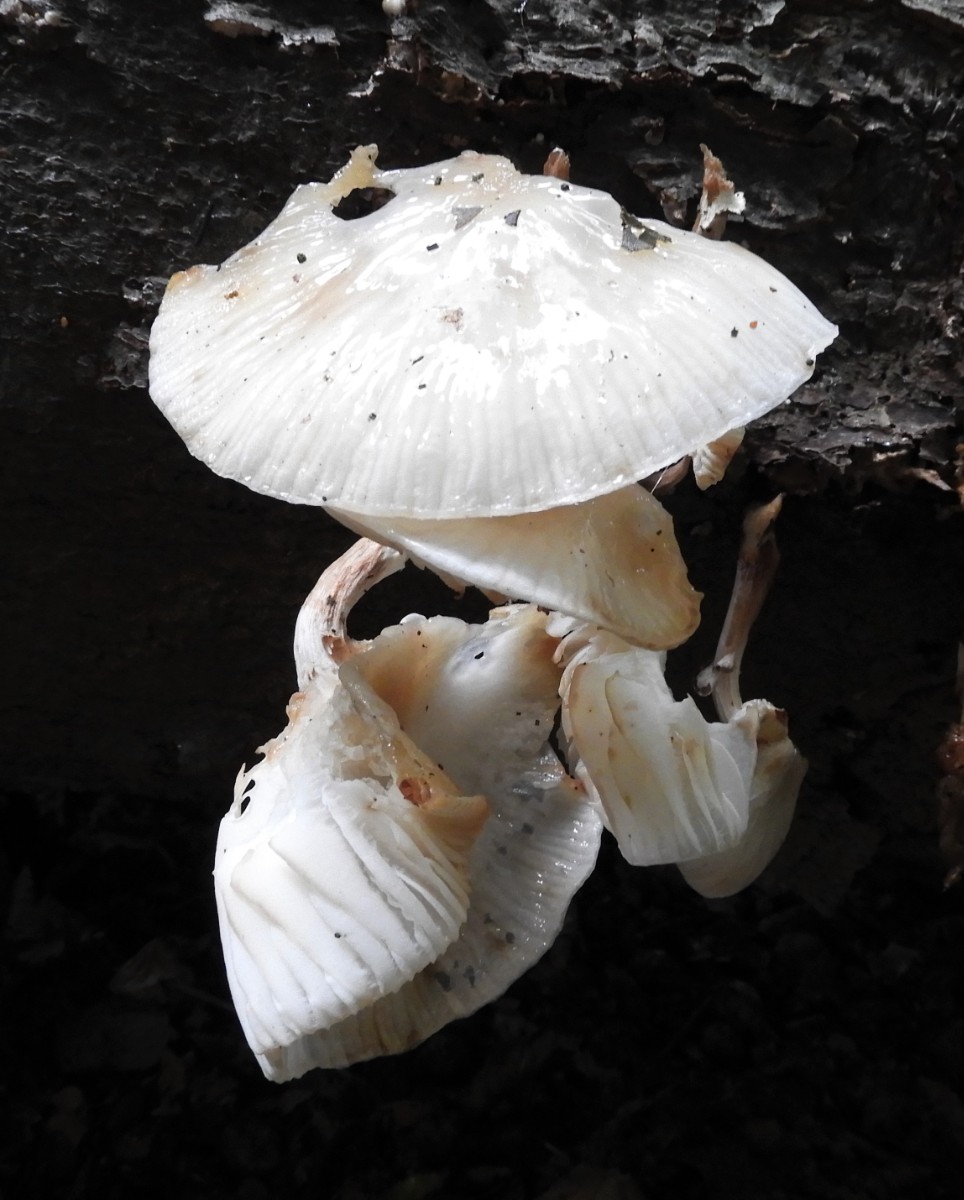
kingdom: Fungi
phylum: Basidiomycota
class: Agaricomycetes
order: Agaricales
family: Physalacriaceae
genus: Mucidula
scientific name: Mucidula mucida
